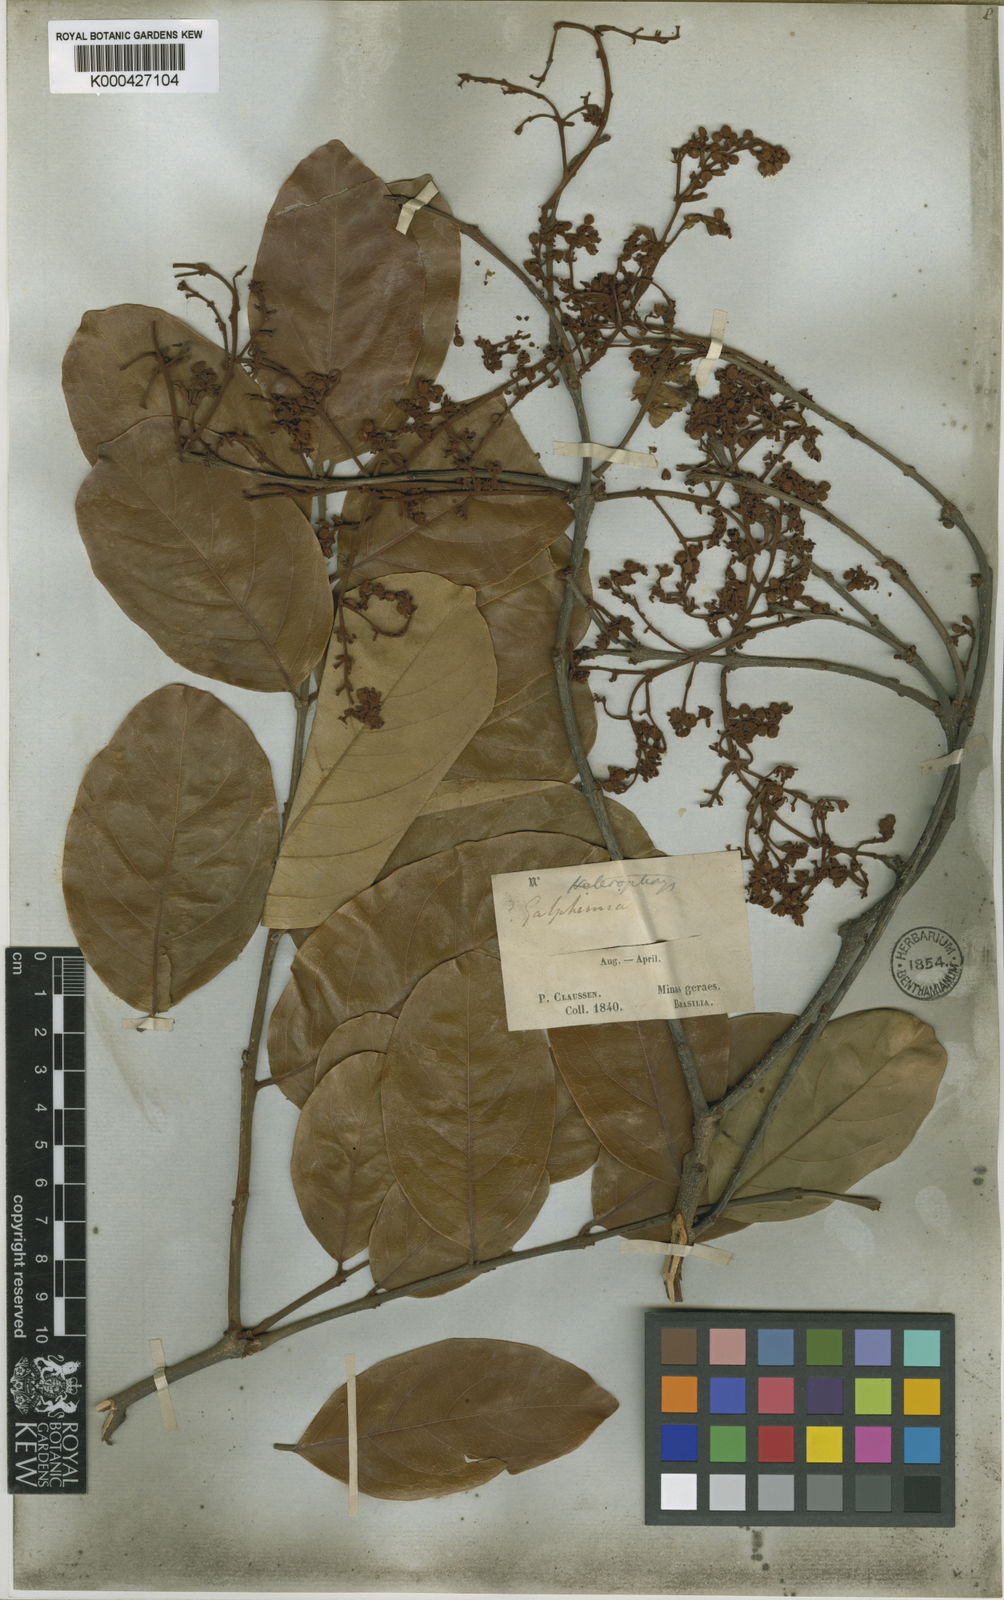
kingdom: Plantae
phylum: Tracheophyta
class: Magnoliopsida
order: Malpighiales
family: Malpighiaceae
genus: Heteropterys
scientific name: Heteropterys xanthophylla
